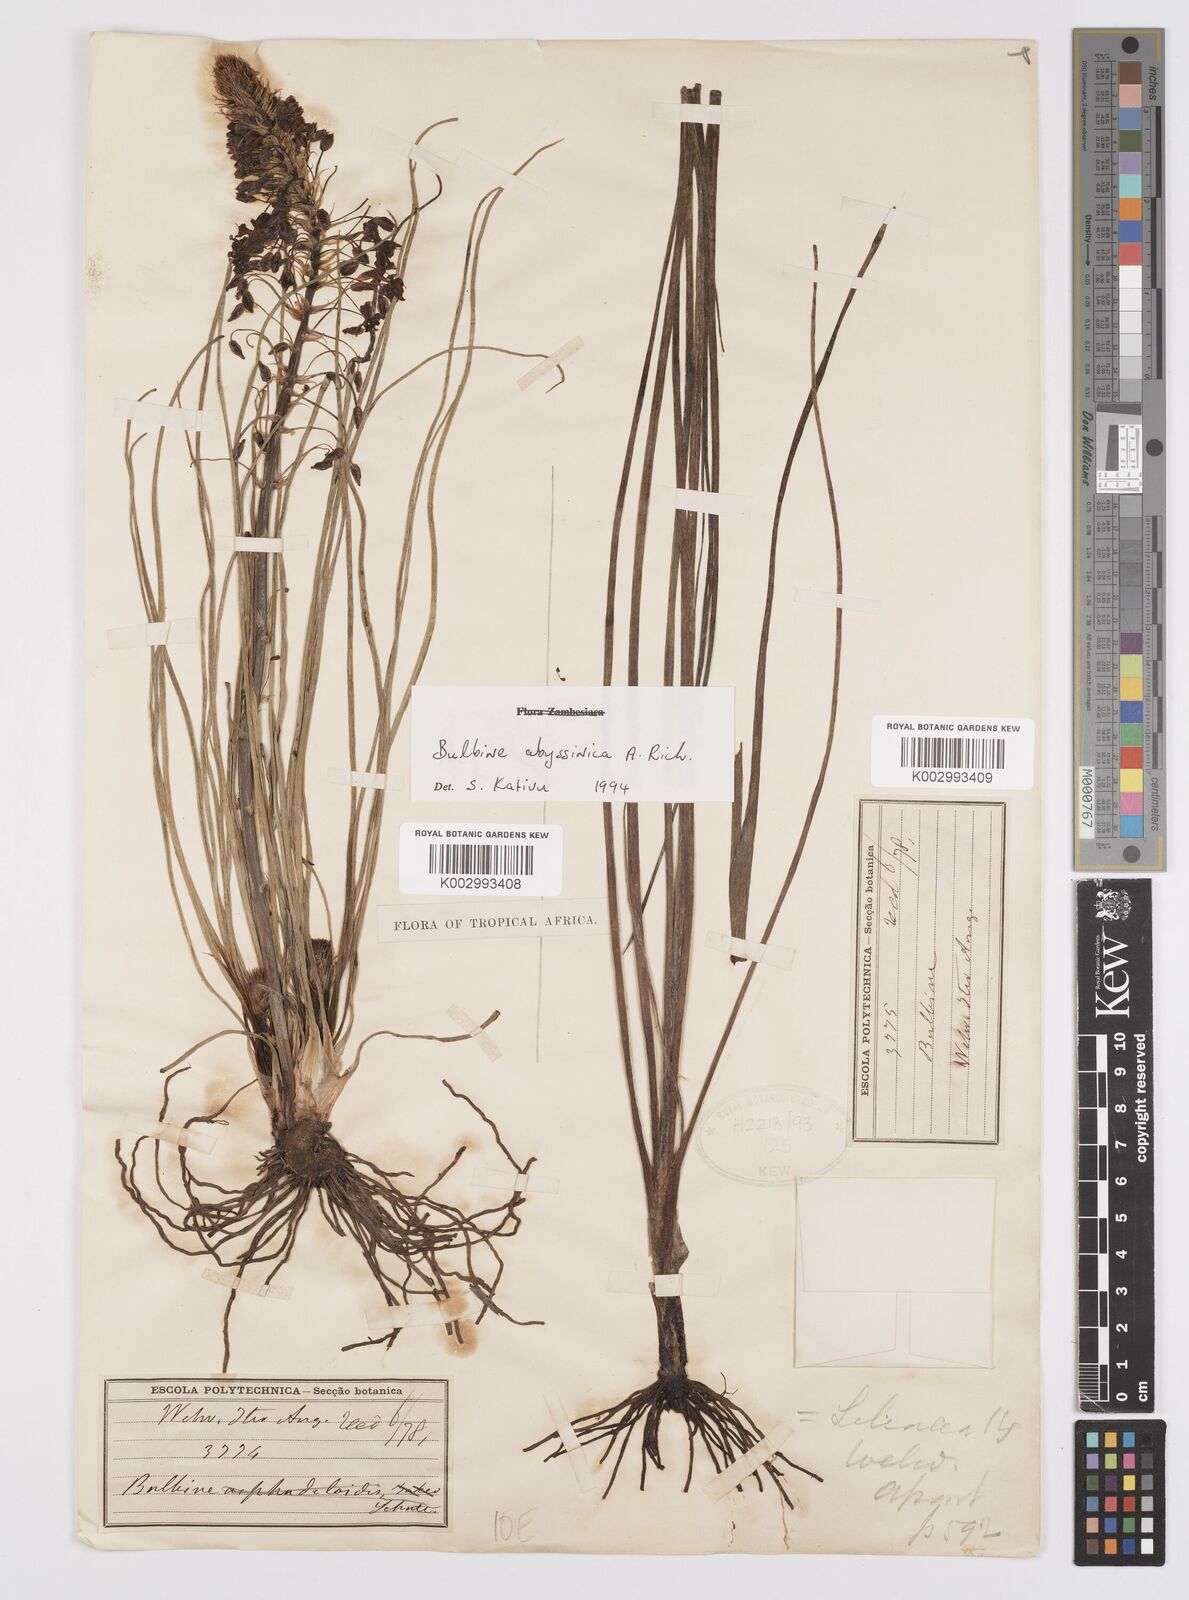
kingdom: Plantae
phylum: Tracheophyta
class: Liliopsida
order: Asparagales
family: Asphodelaceae
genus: Bulbine
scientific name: Bulbine abyssinica
